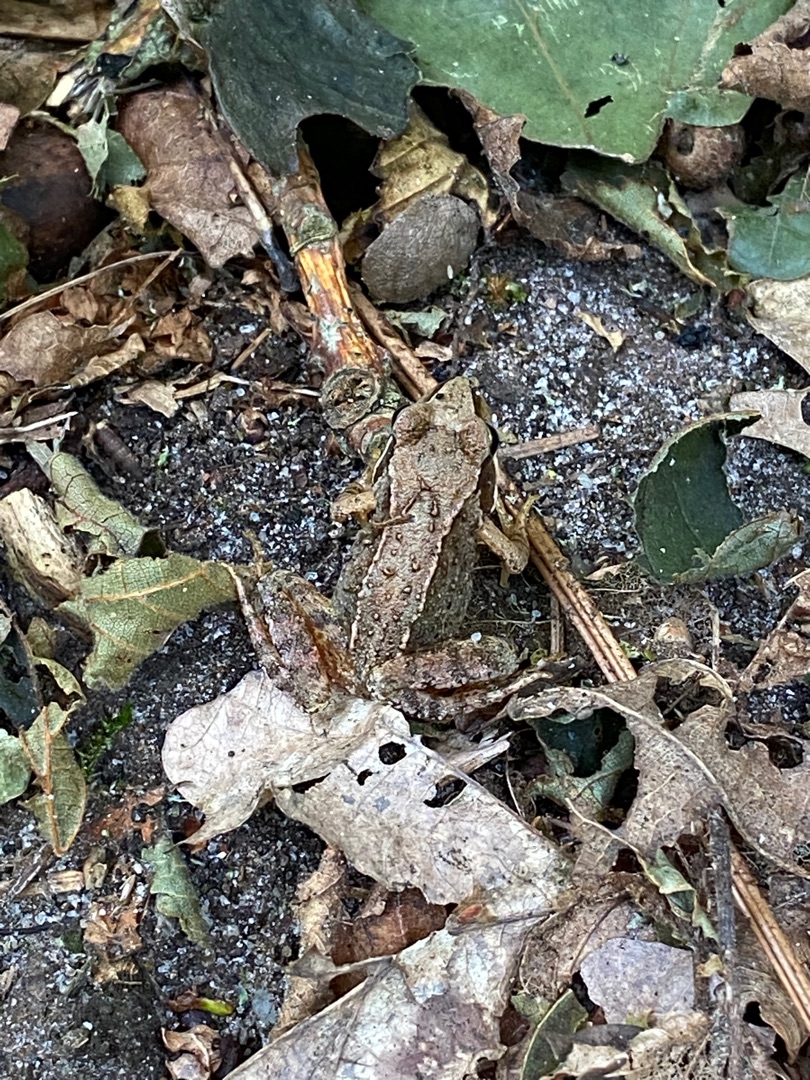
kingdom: Animalia
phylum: Chordata
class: Amphibia
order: Anura
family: Ranidae
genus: Rana
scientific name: Rana temporaria
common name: Butsnudet frø
